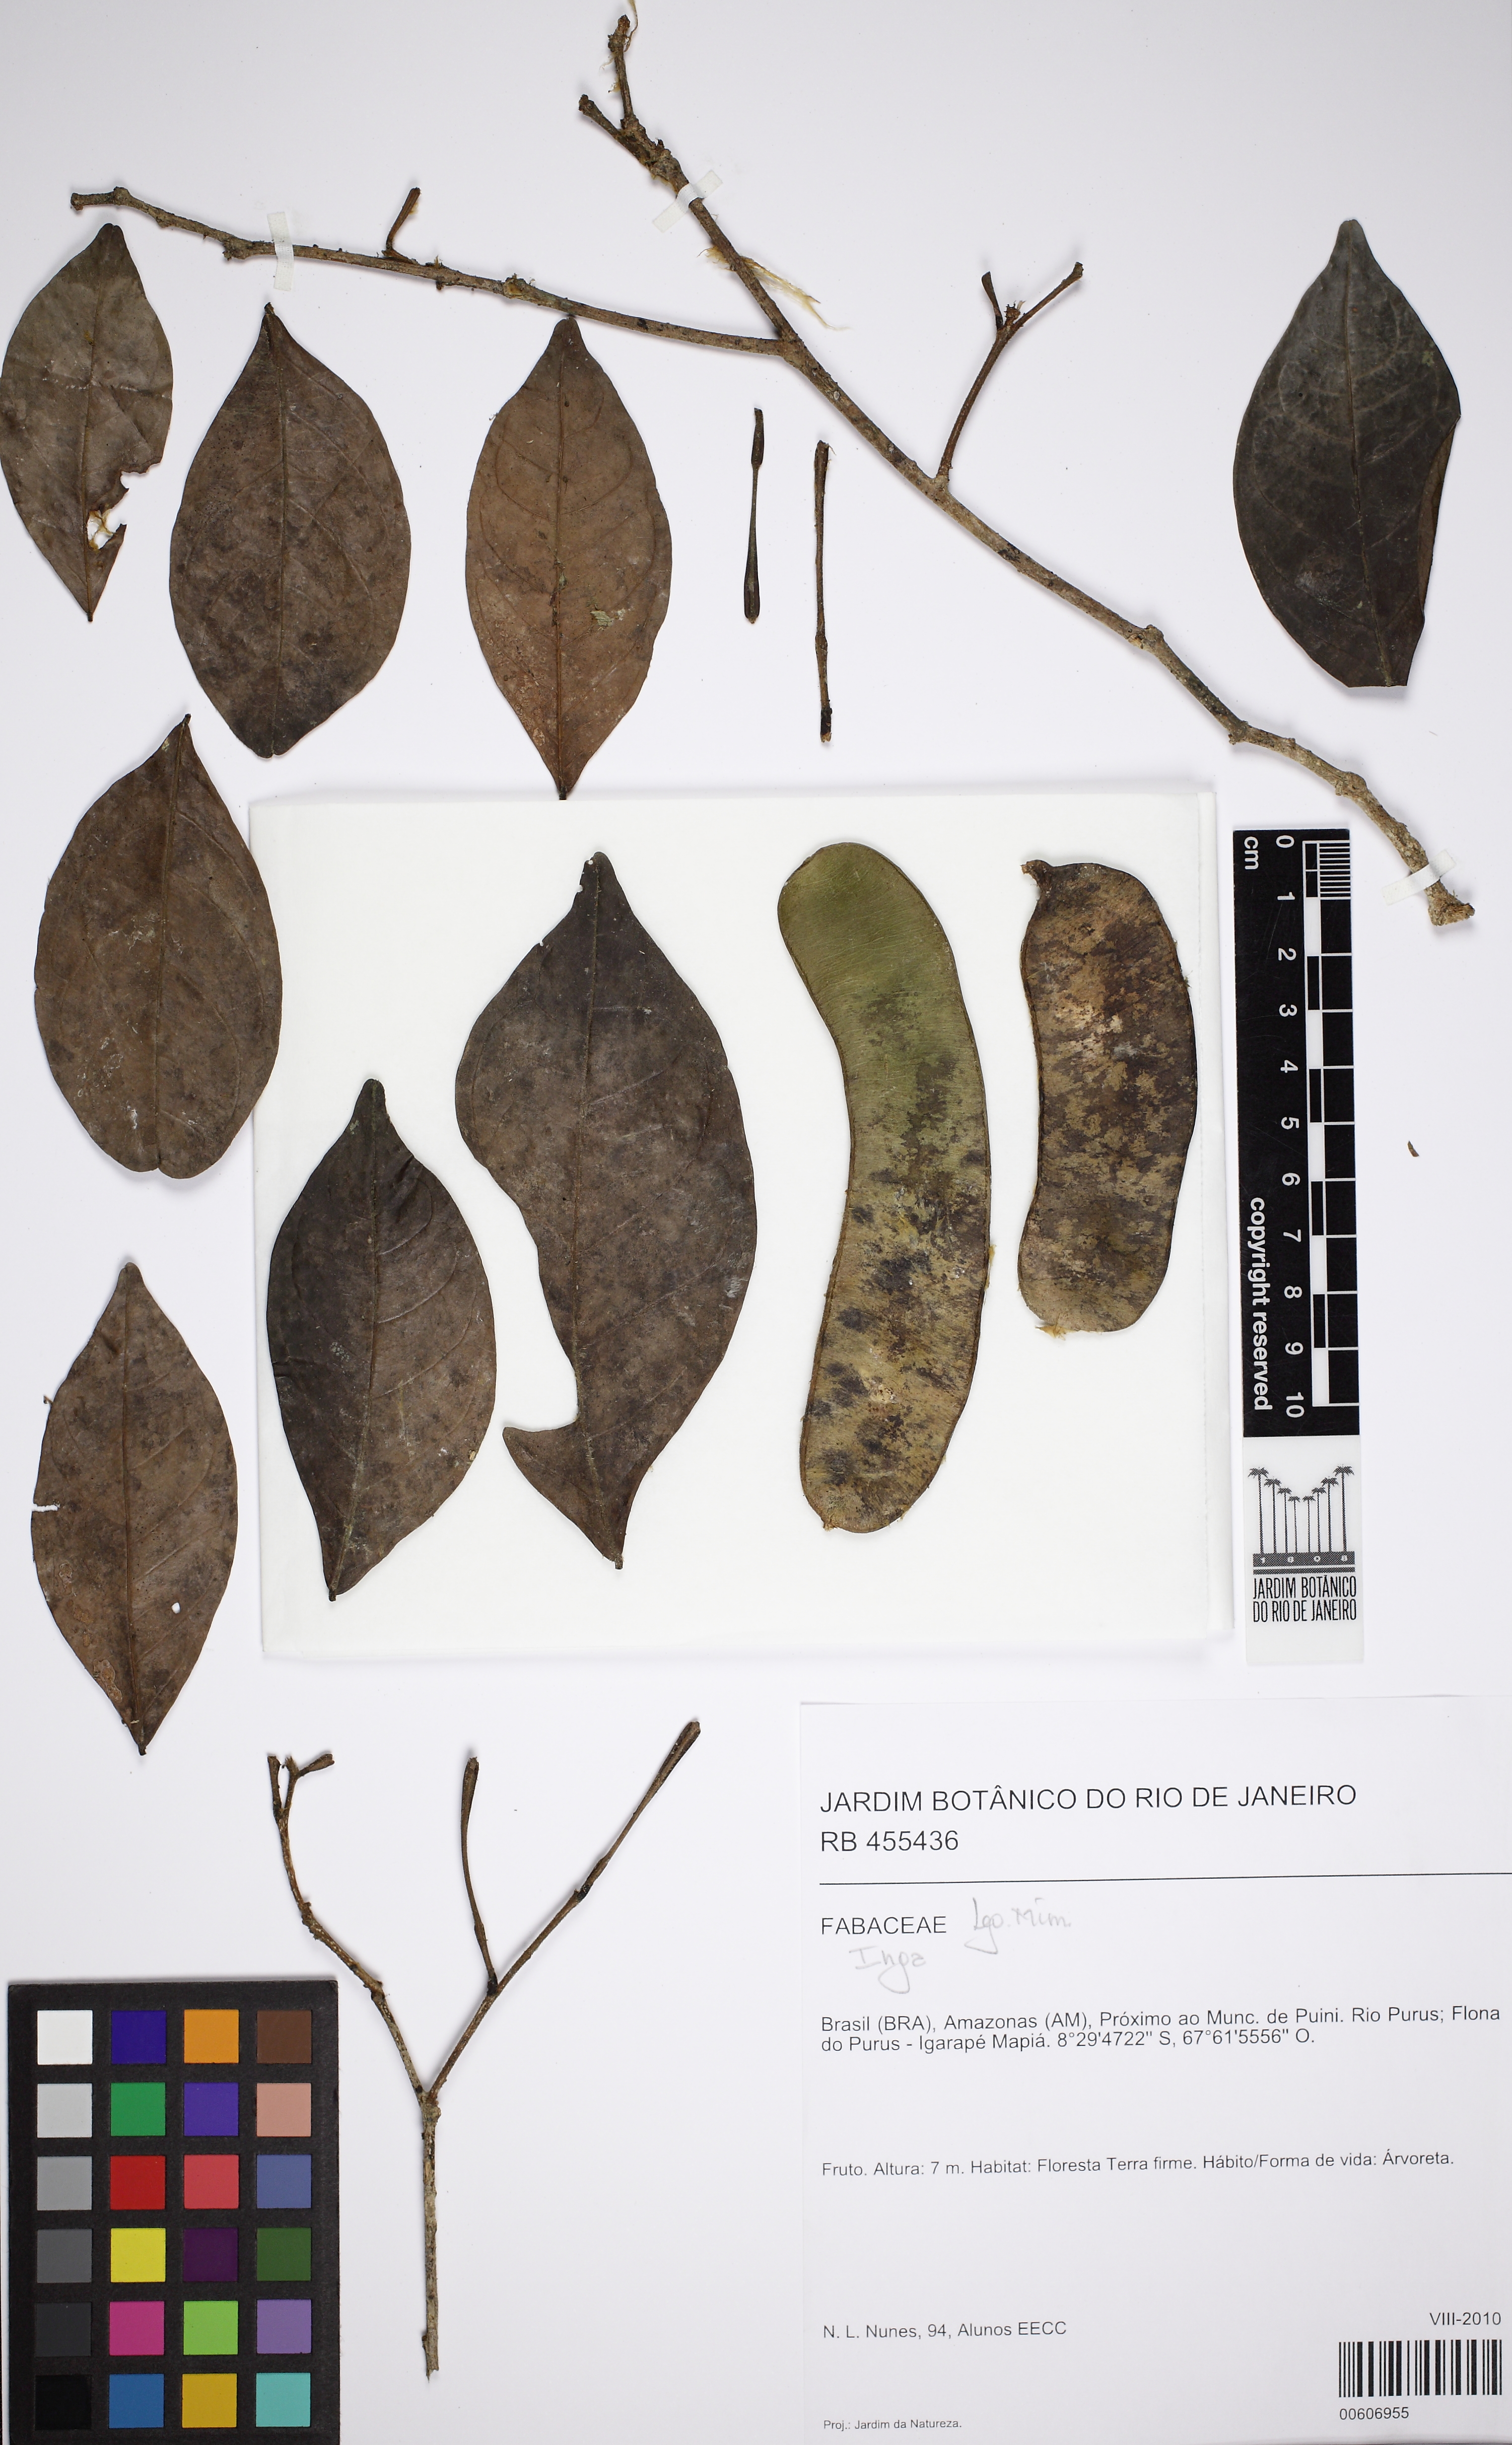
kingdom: Plantae
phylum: Tracheophyta
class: Magnoliopsida
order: Fabales
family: Fabaceae
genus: Inga
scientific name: Inga
